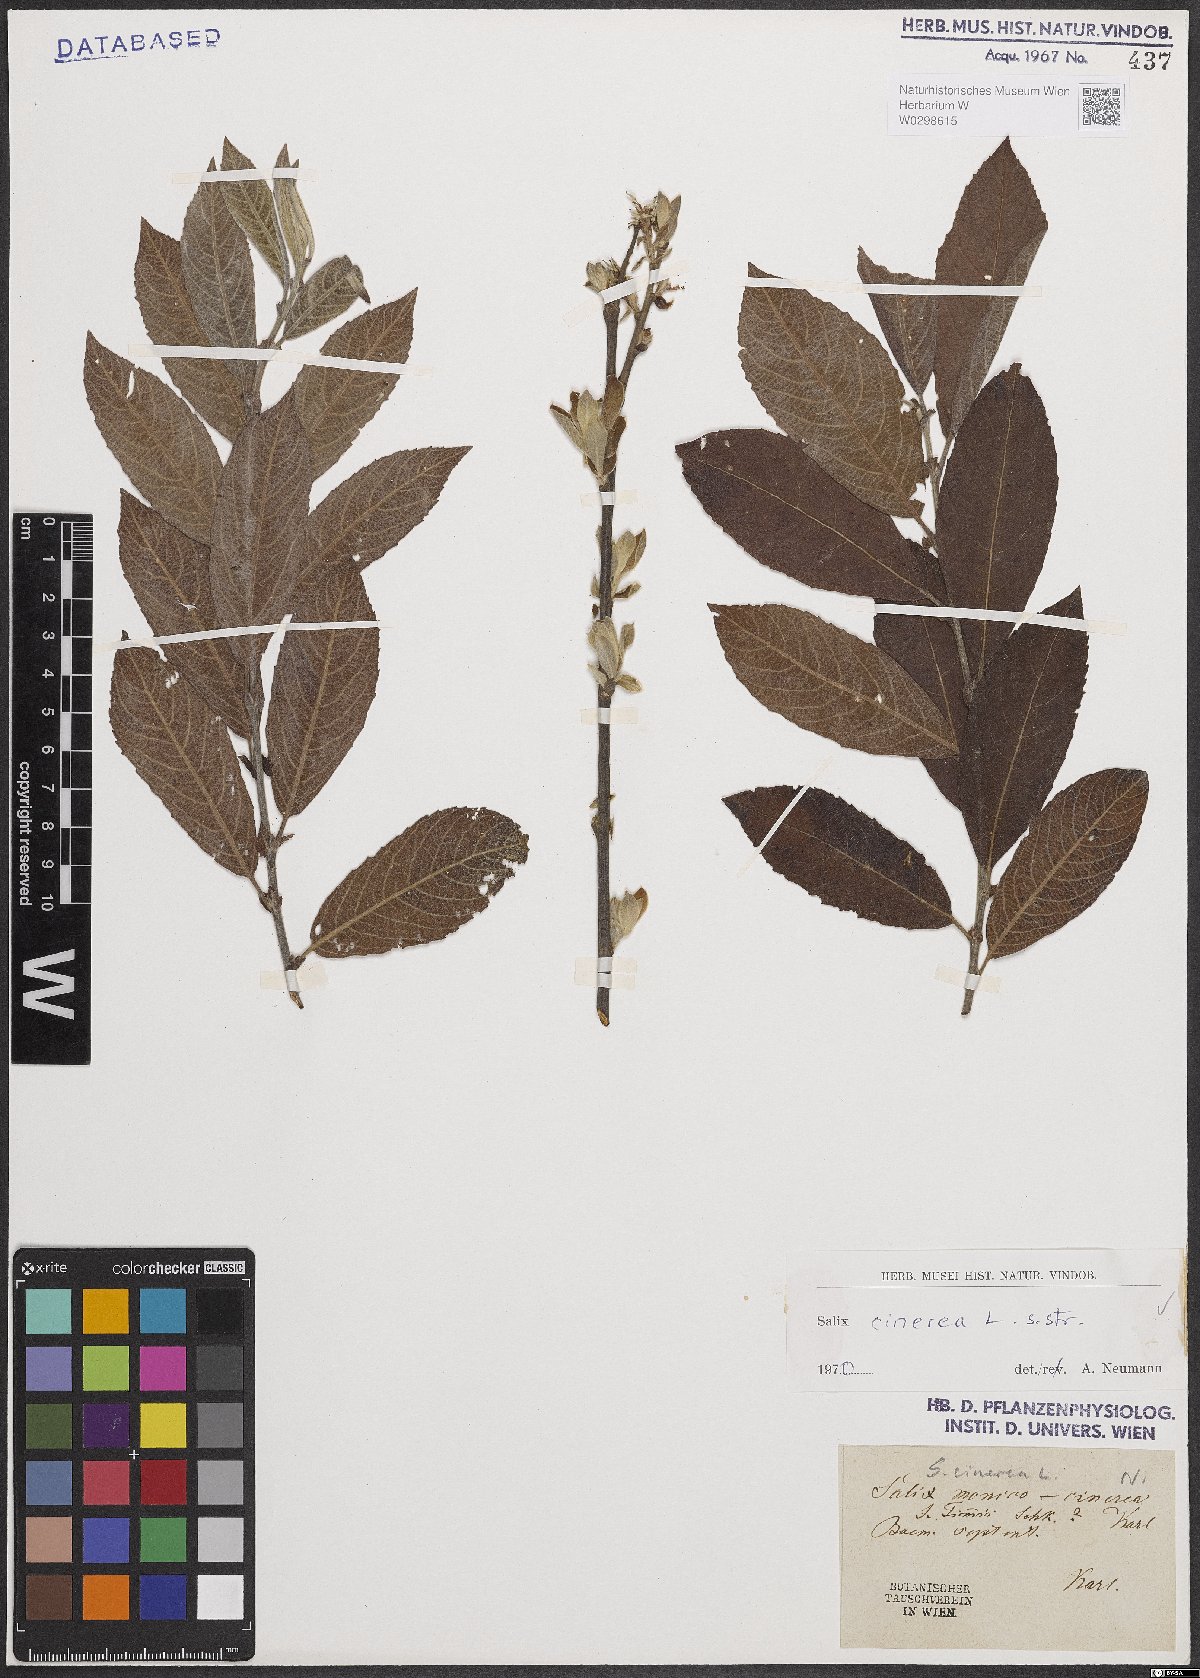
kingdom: Plantae
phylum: Tracheophyta
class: Magnoliopsida
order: Malpighiales
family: Salicaceae
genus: Salix
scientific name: Salix cinerea
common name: Common sallow
